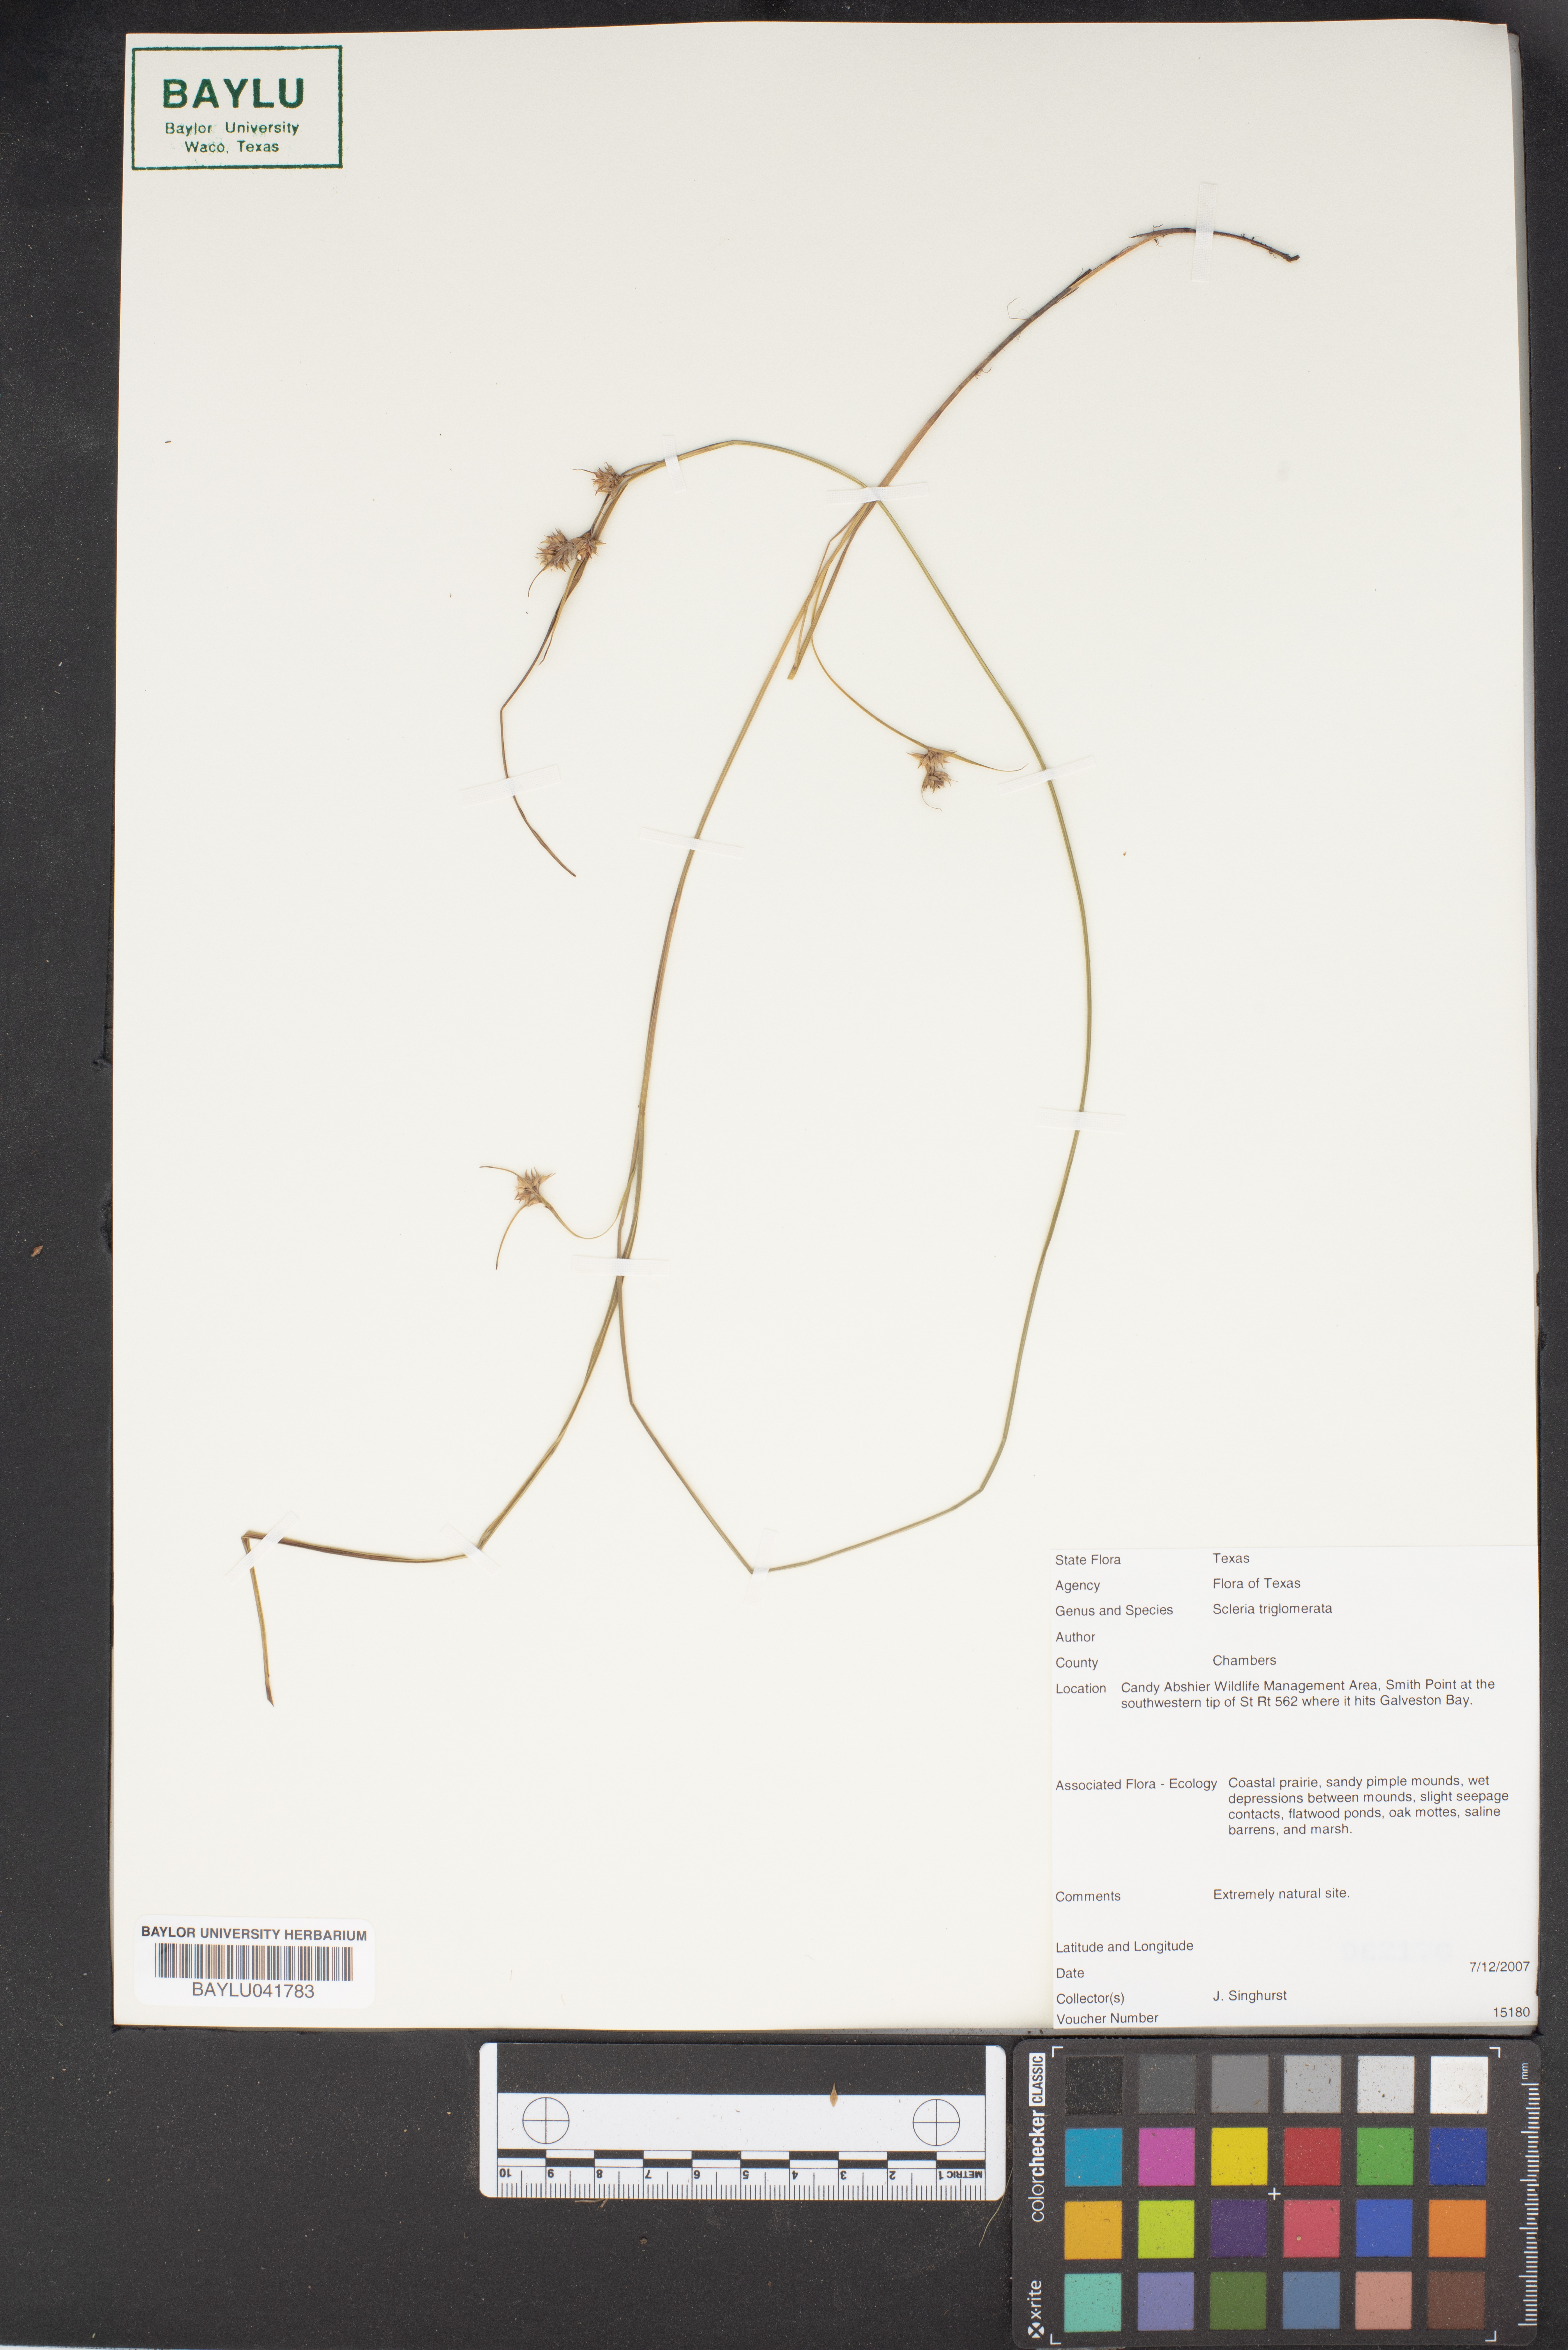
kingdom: Plantae
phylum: Tracheophyta
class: Liliopsida
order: Poales
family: Cyperaceae
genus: Scleria
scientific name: Scleria triglomerata
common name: Whip nutrush
